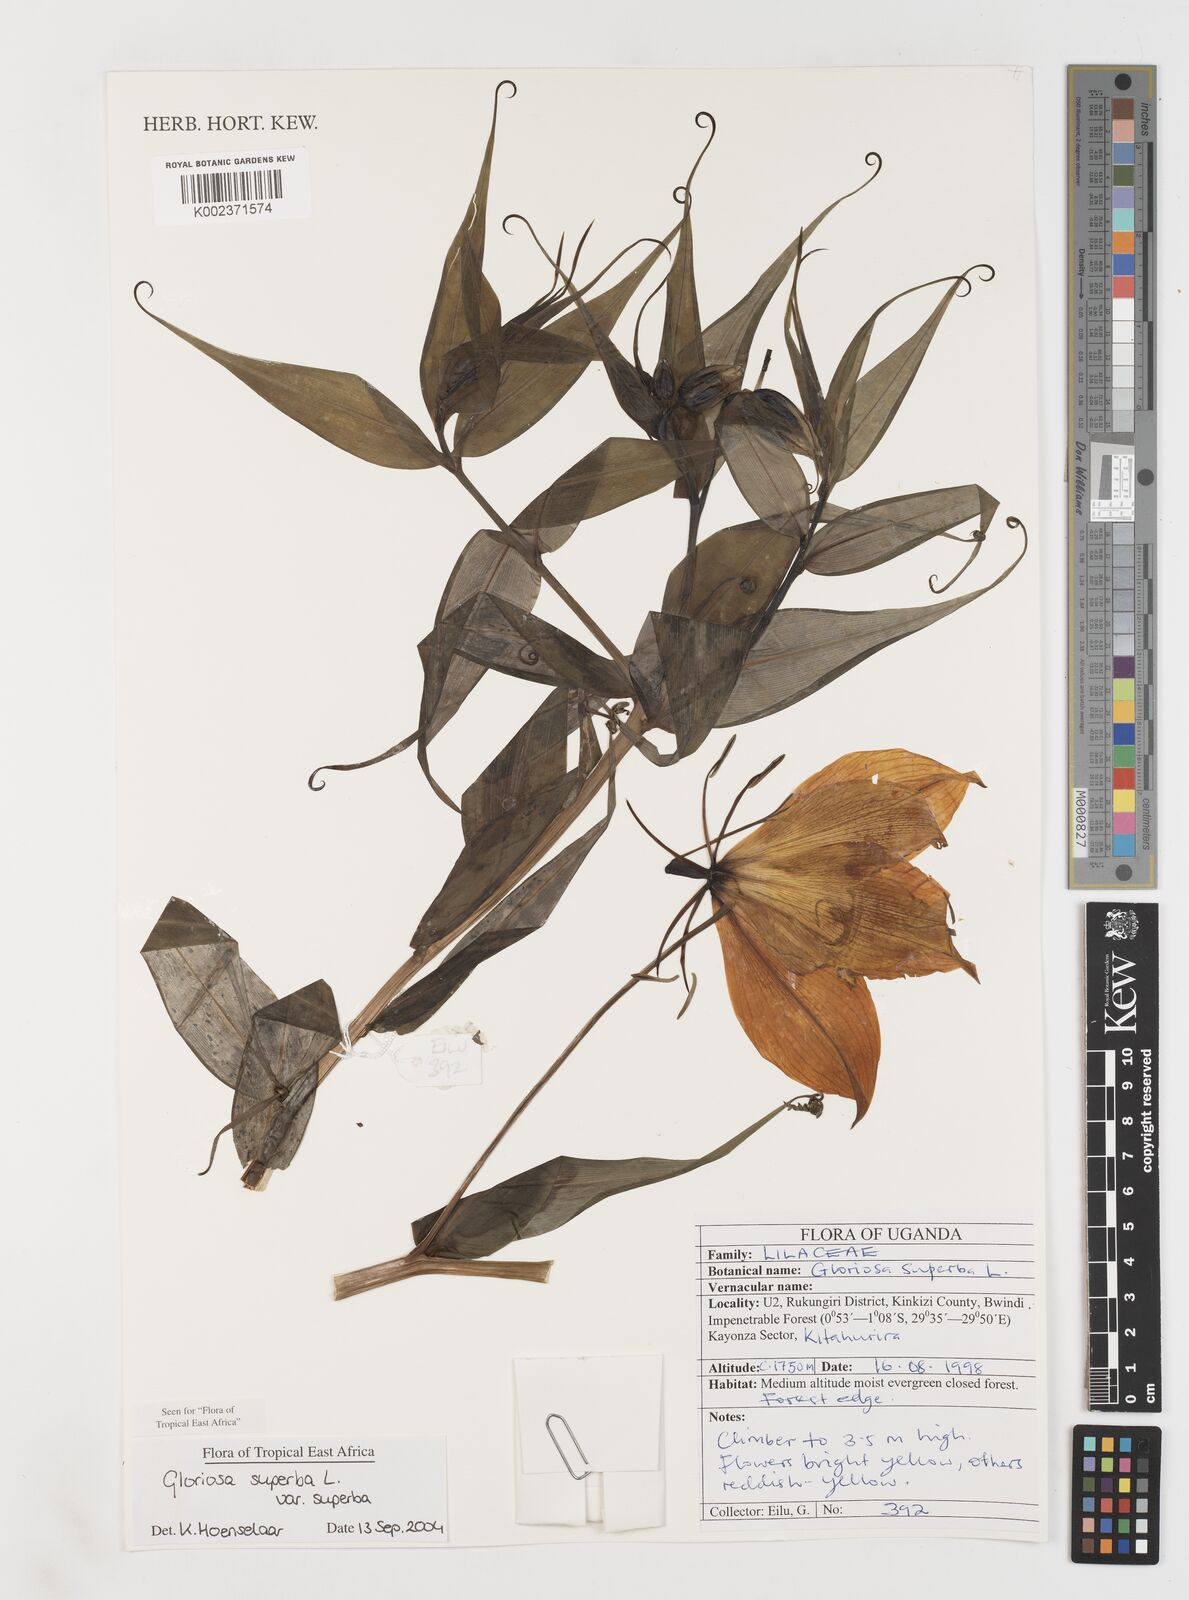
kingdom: Plantae
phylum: Tracheophyta
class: Liliopsida
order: Liliales
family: Colchicaceae
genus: Gloriosa
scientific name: Gloriosa simplex
